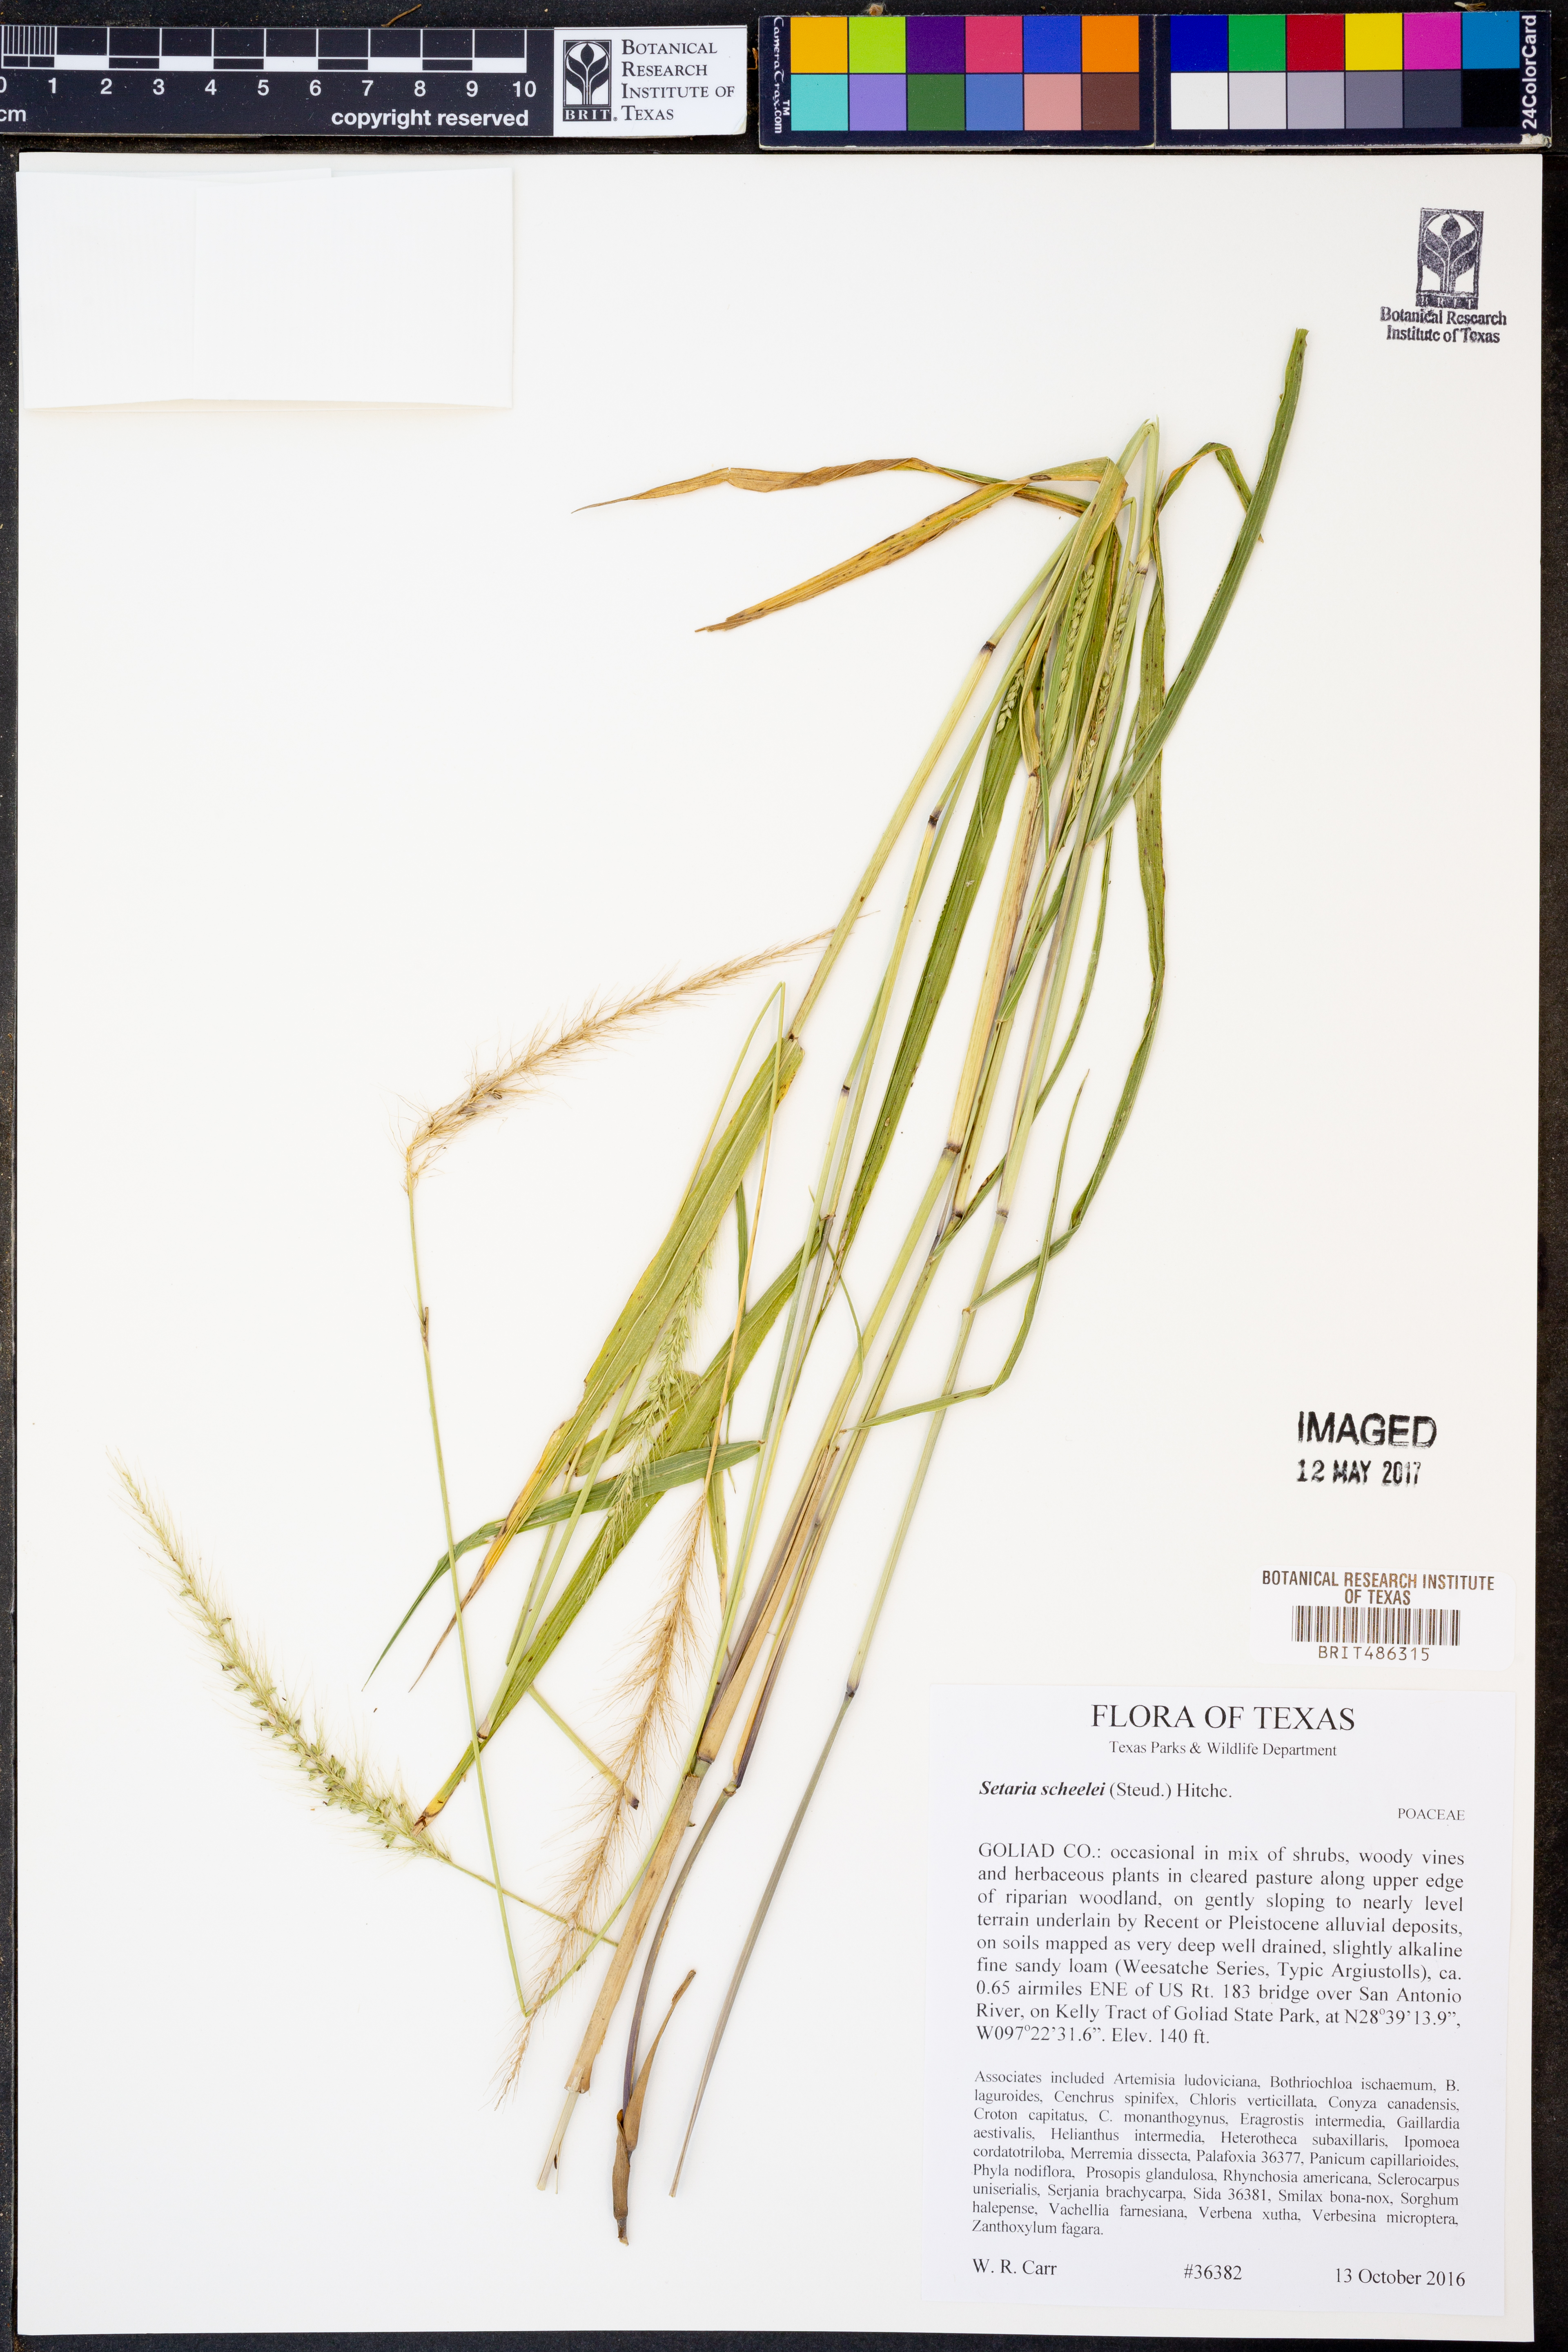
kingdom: Plantae
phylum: Tracheophyta
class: Liliopsida
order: Poales
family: Poaceae
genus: Setaria
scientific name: Setaria scheelei
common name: Southwestern bristle grass
